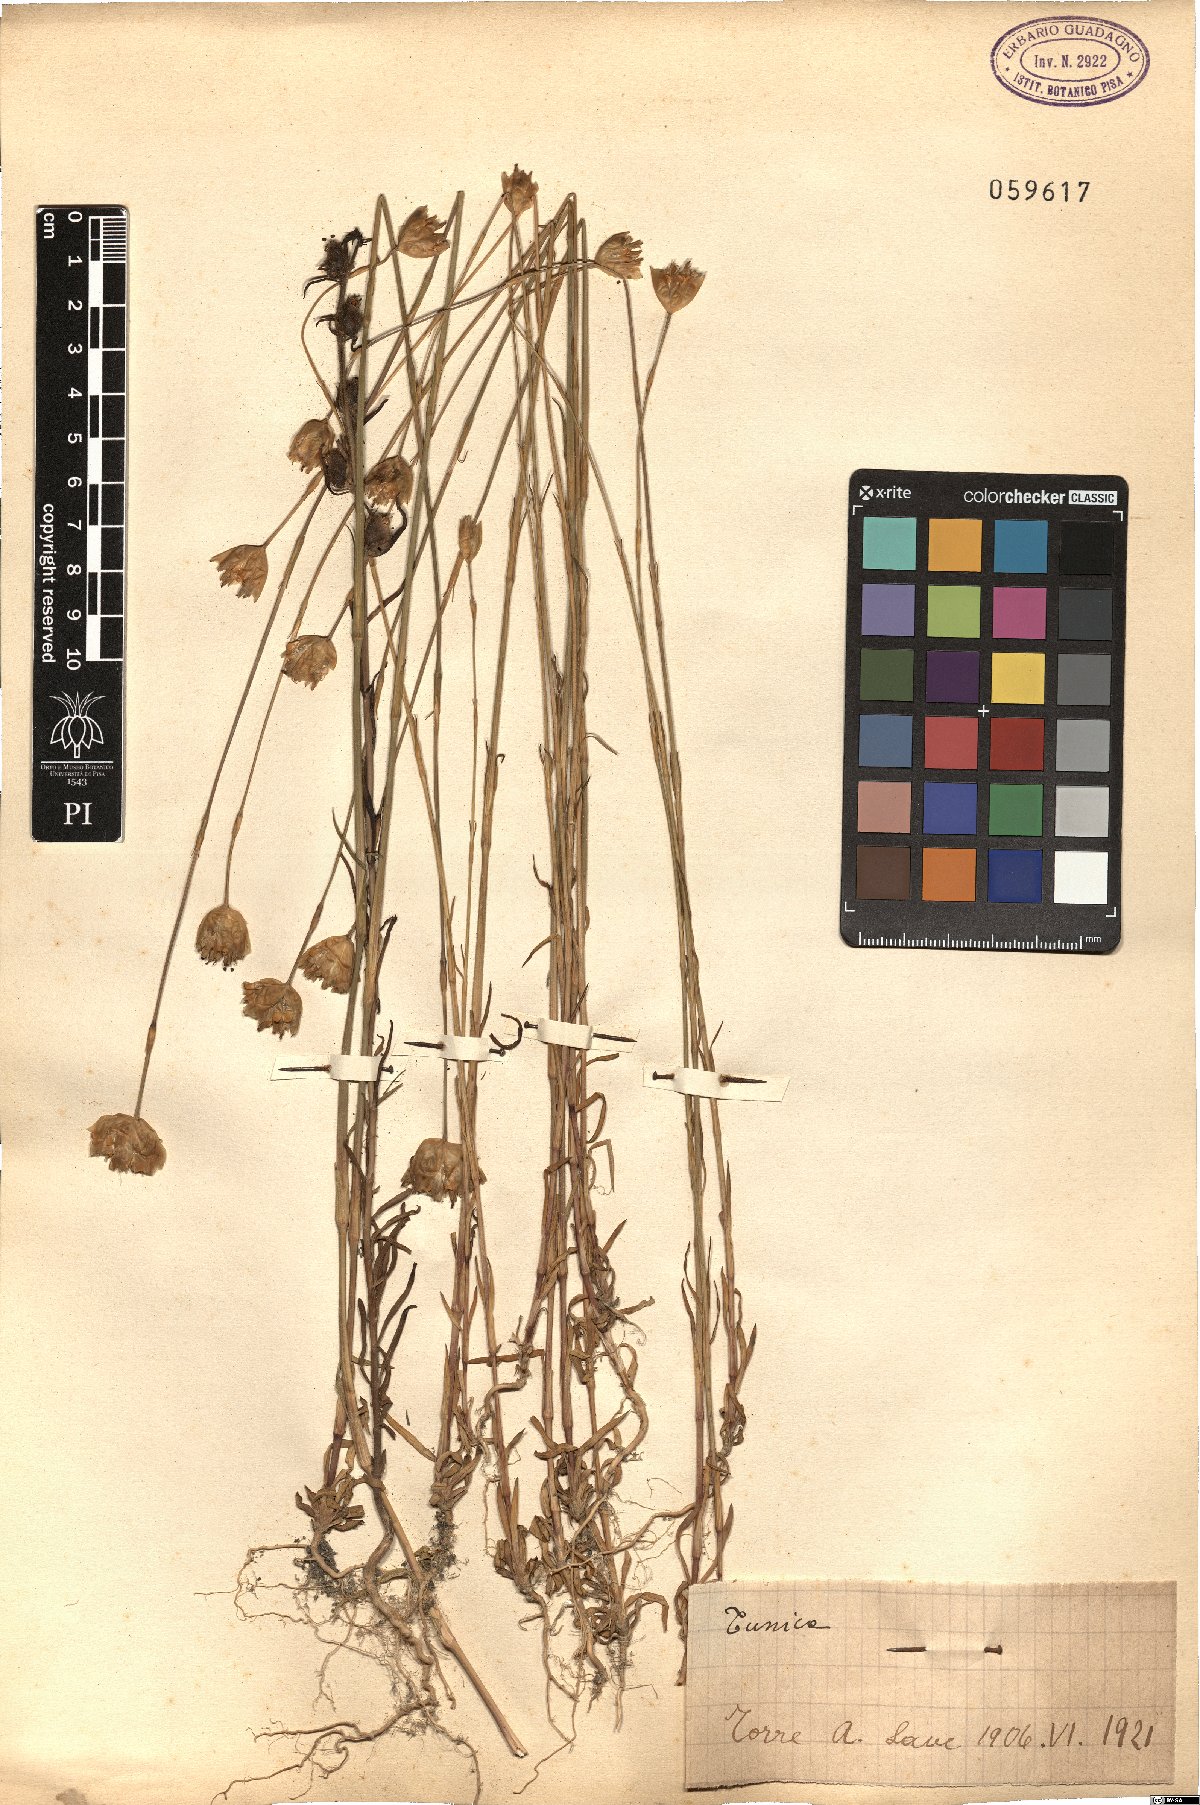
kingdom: Plantae
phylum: Tracheophyta
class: Magnoliopsida
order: Caryophyllales
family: Caryophyllaceae
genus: Tunica
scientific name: Tunica
